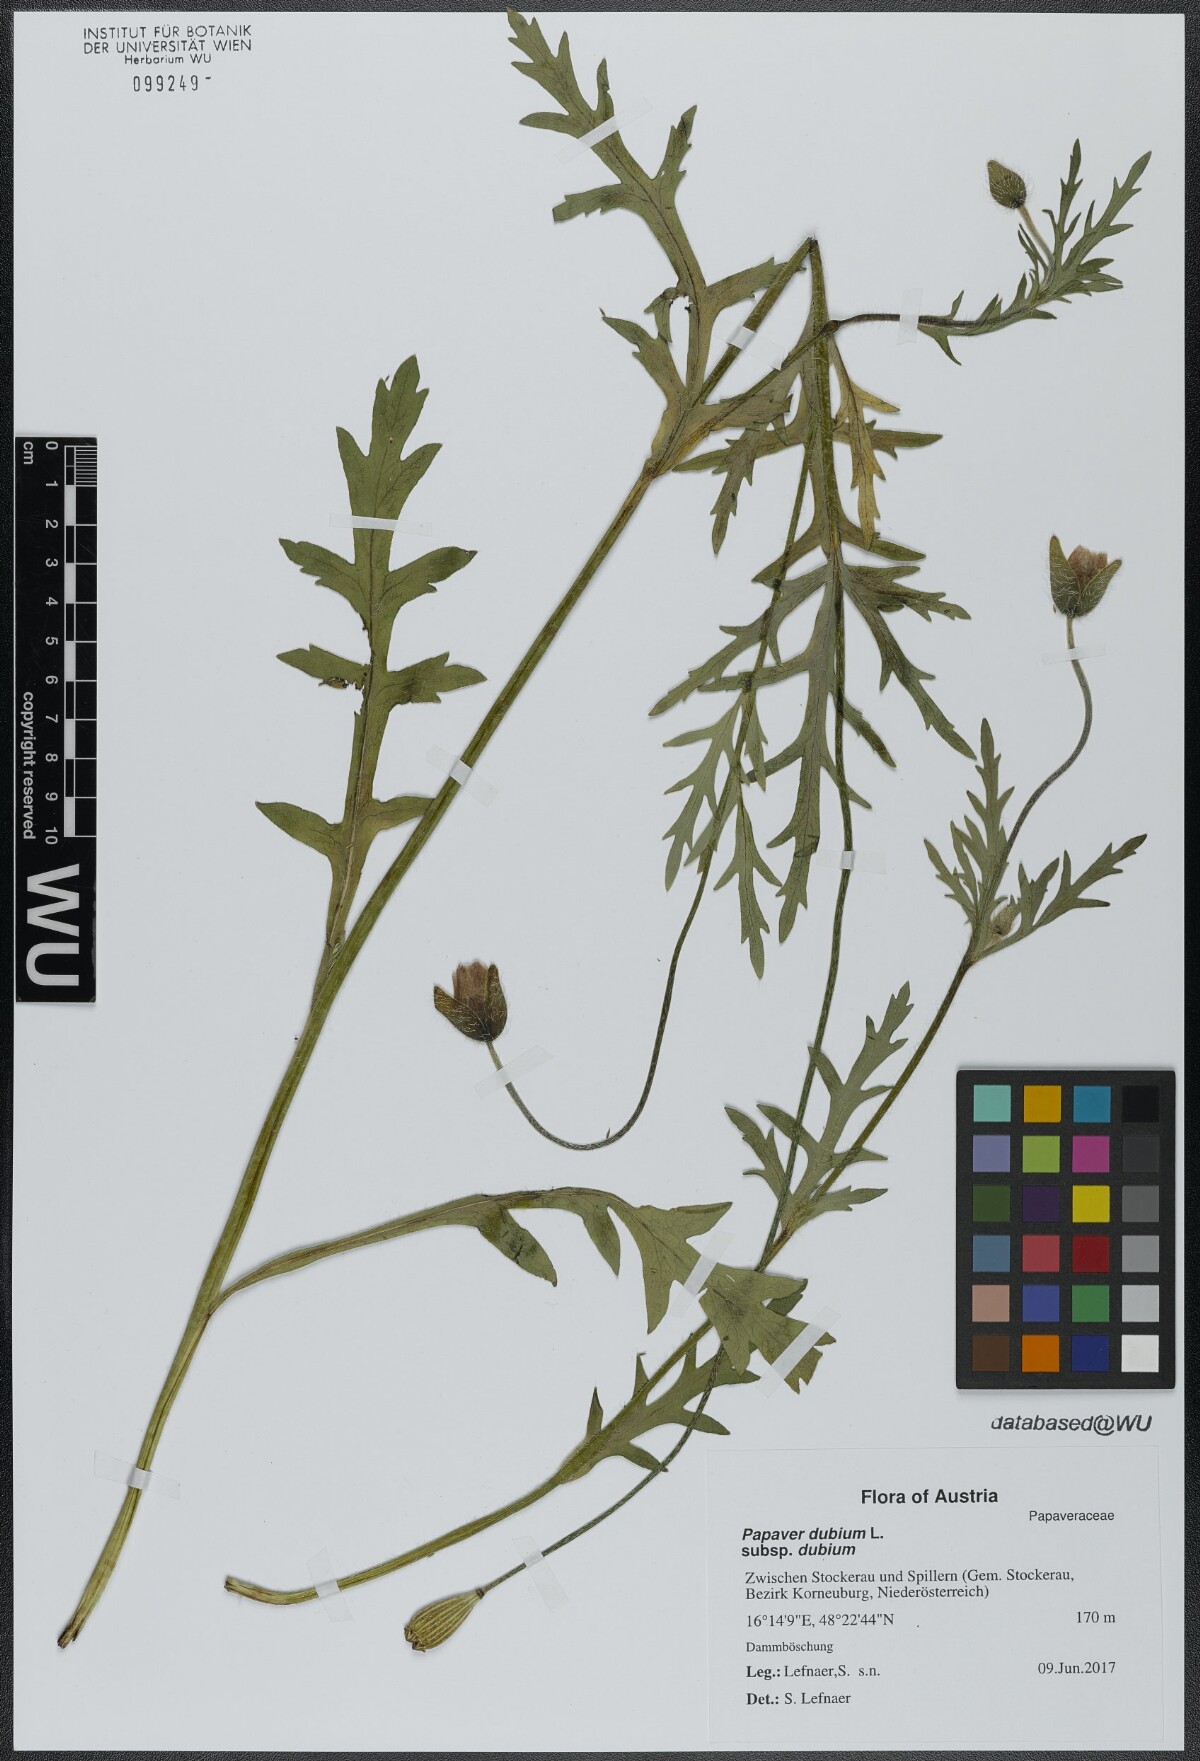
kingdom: Plantae
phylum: Tracheophyta
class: Magnoliopsida
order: Ranunculales
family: Papaveraceae
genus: Papaver
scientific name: Papaver dubium
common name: Long-headed poppy
